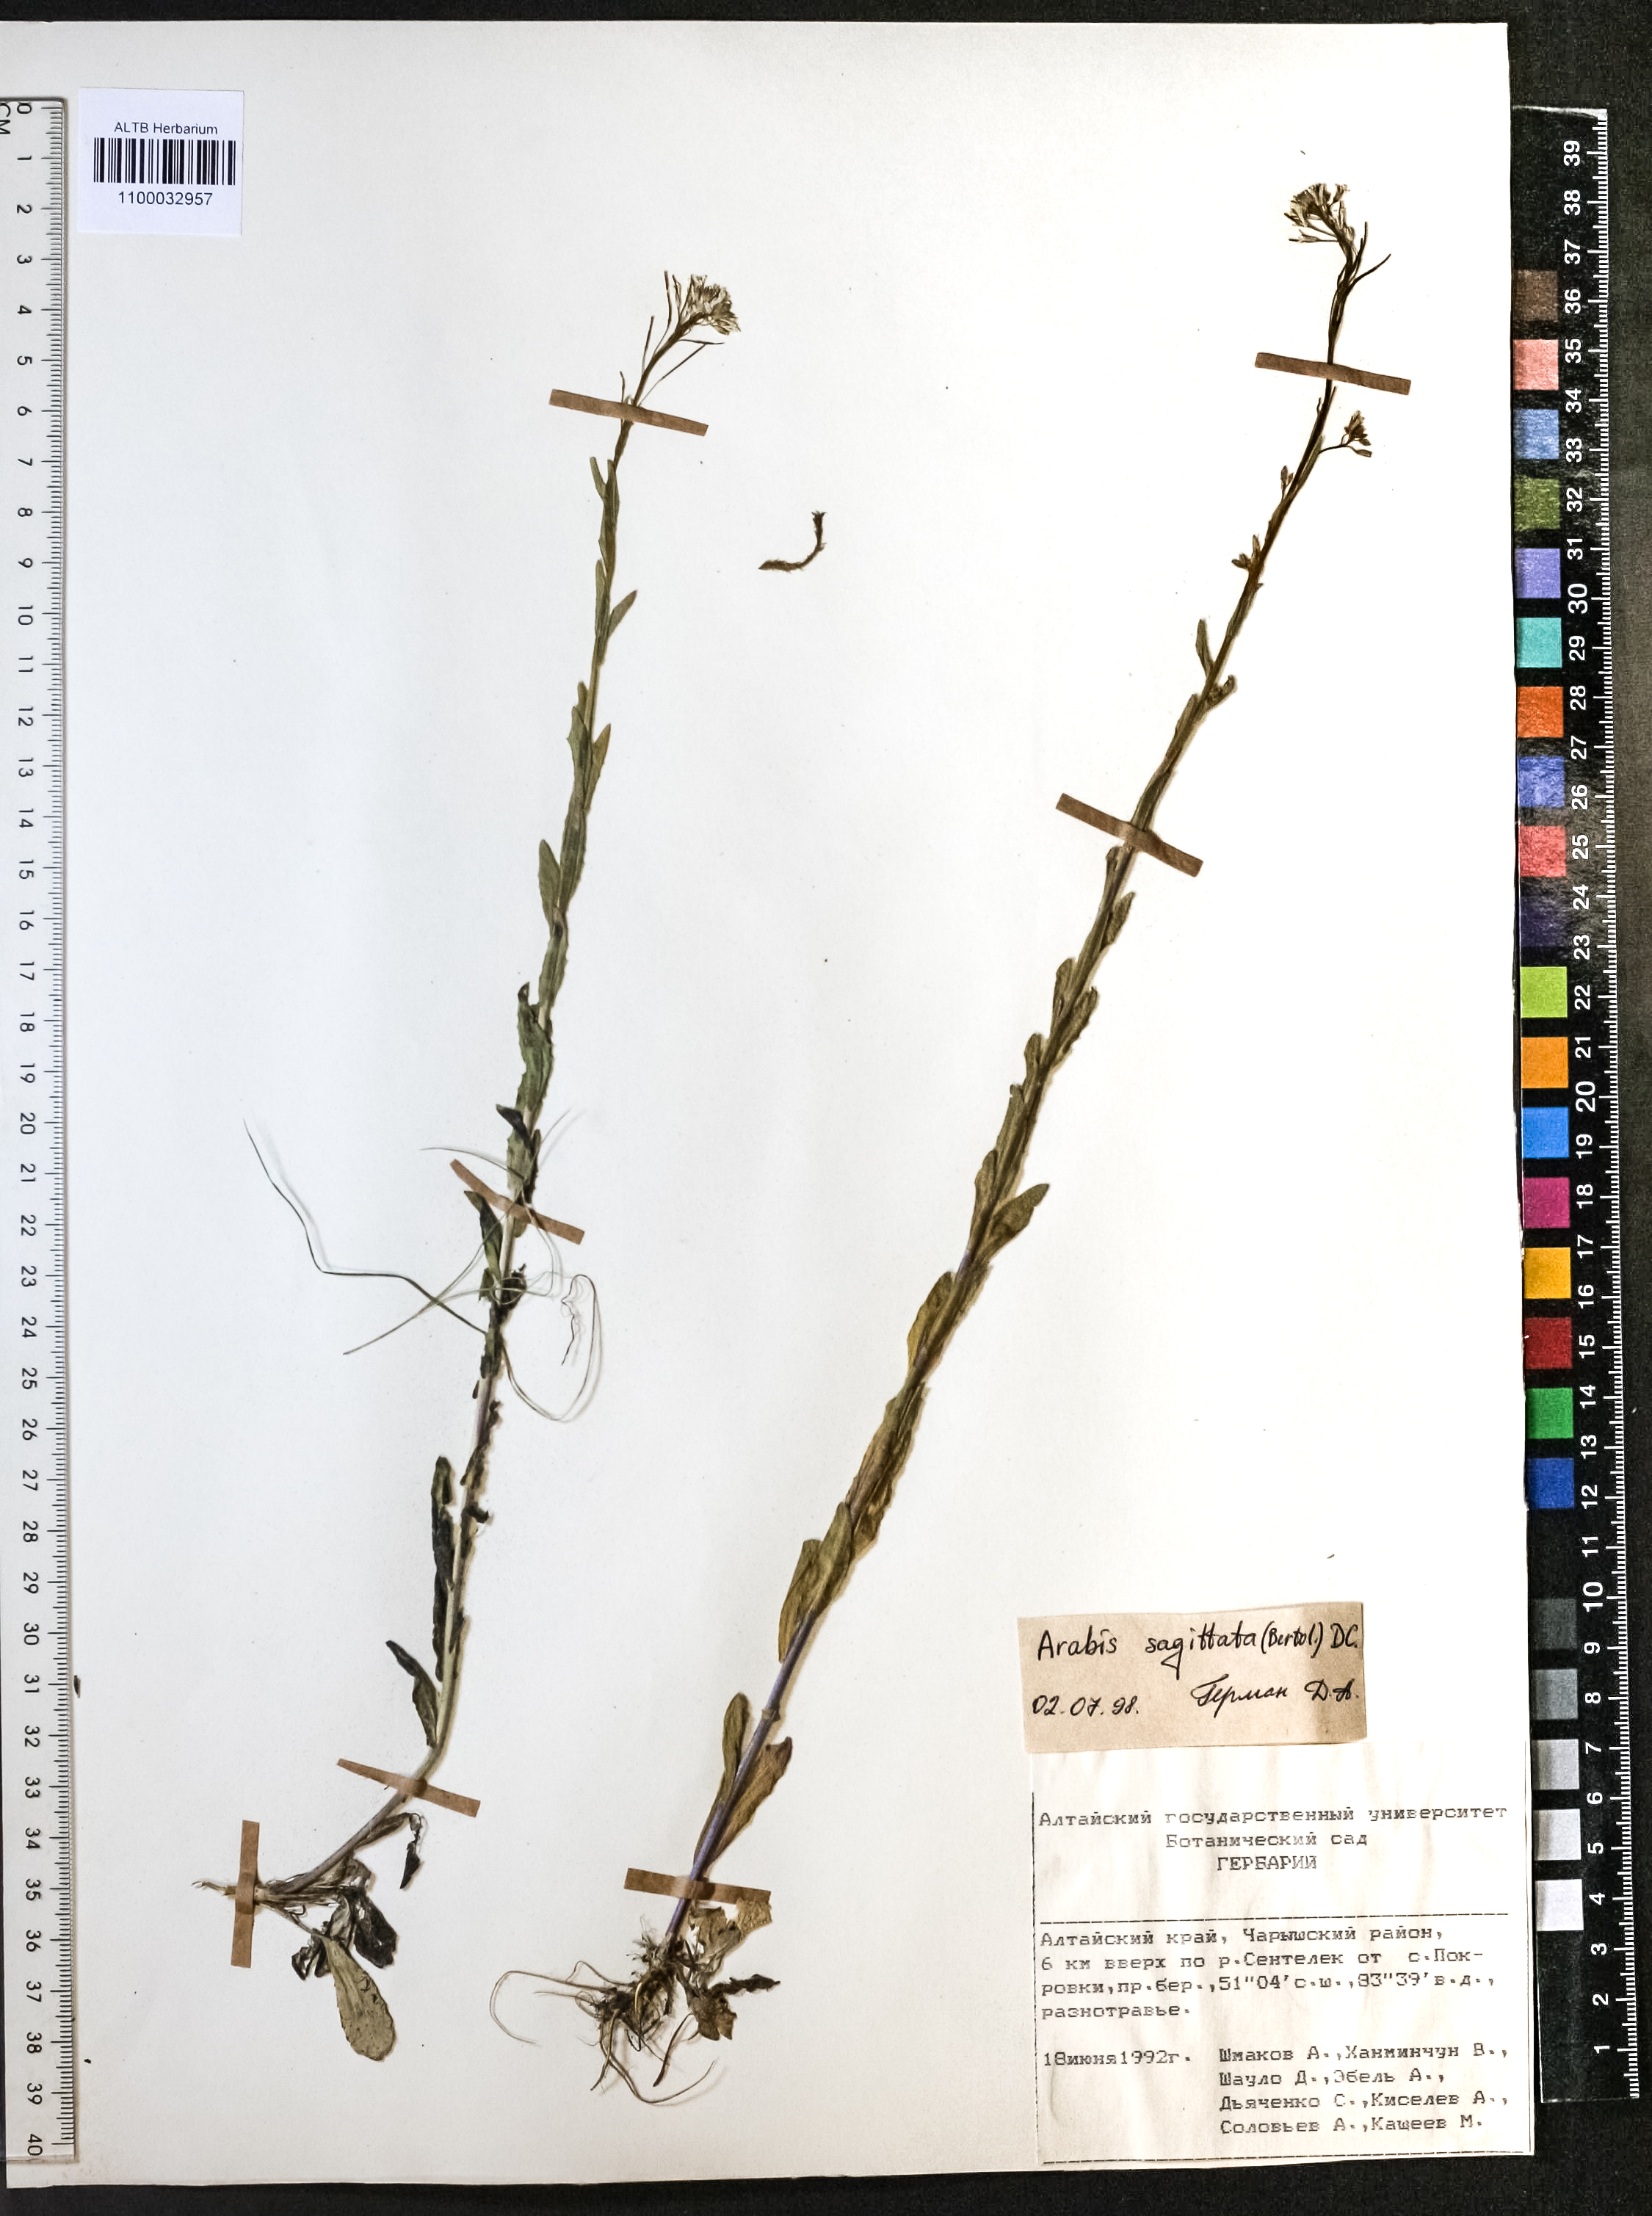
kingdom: Plantae
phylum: Tracheophyta
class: Magnoliopsida
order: Brassicales
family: Brassicaceae
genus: Arabis
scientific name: Arabis sagittata
